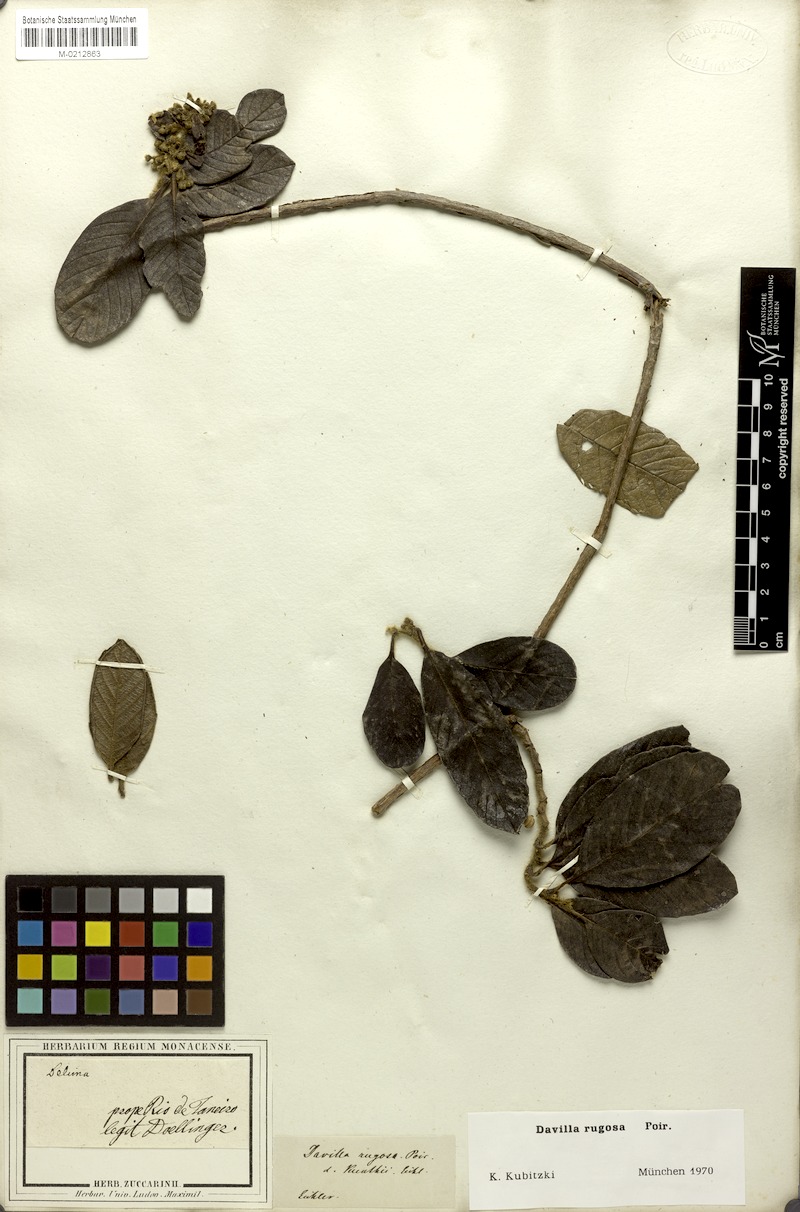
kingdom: Plantae
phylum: Tracheophyta
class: Magnoliopsida
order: Dilleniales
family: Dilleniaceae
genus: Davilla
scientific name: Davilla rugosa
